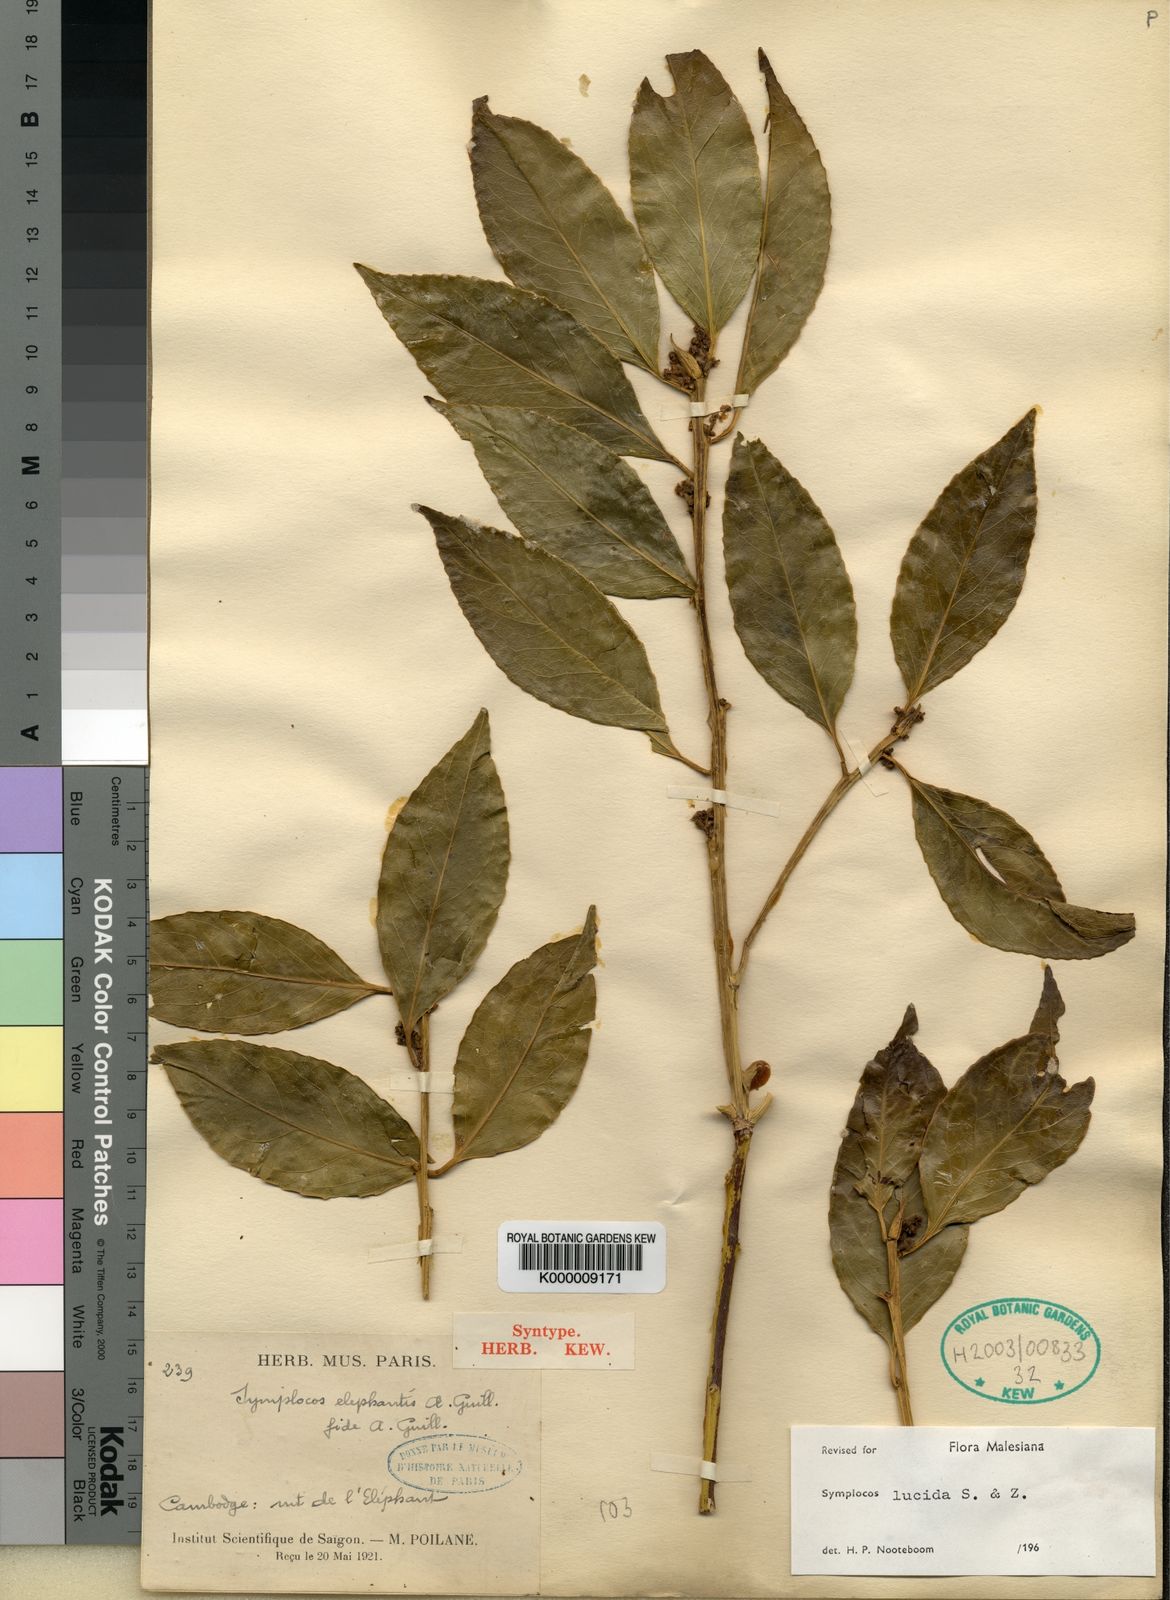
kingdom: Plantae
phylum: Tracheophyta
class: Magnoliopsida
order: Ericales
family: Symplocaceae
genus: Symplocos
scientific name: Symplocos
